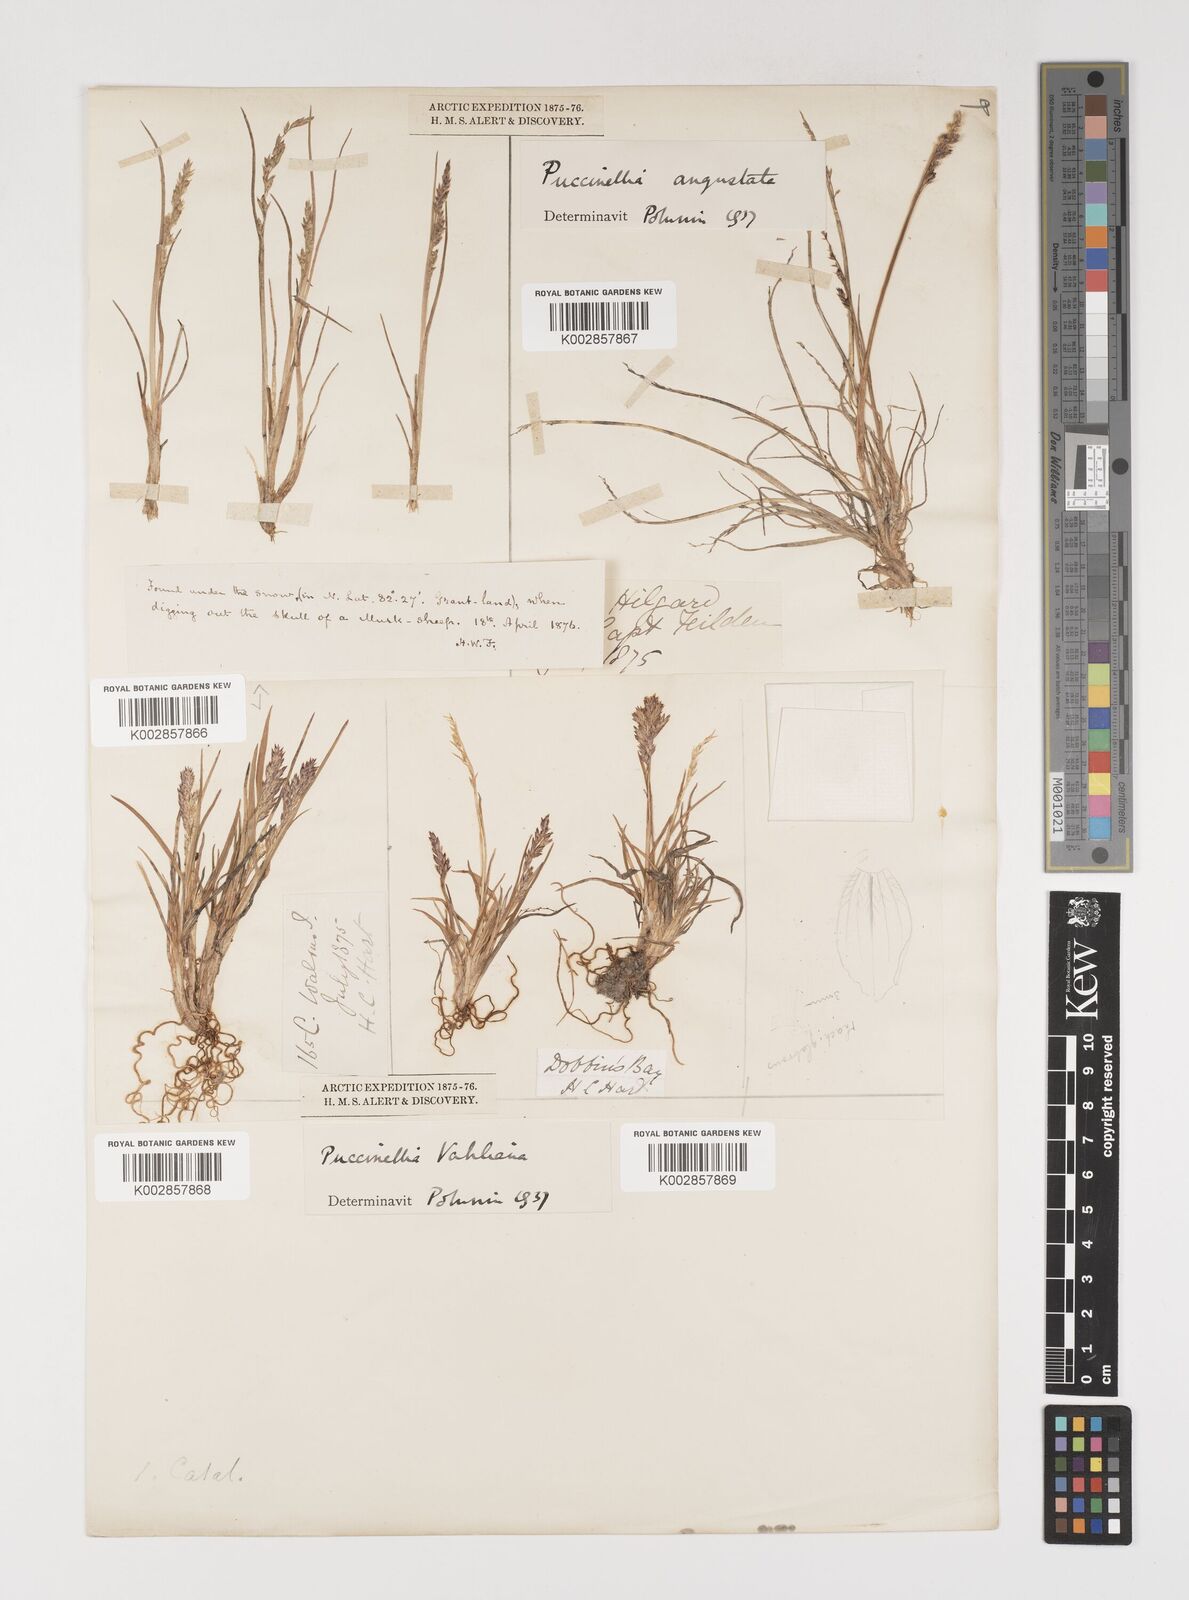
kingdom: Plantae
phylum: Tracheophyta
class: Liliopsida
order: Poales
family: Poaceae
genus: Puccinellia
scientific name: Puccinellia vahliana
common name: Vahl's alkaligrass
